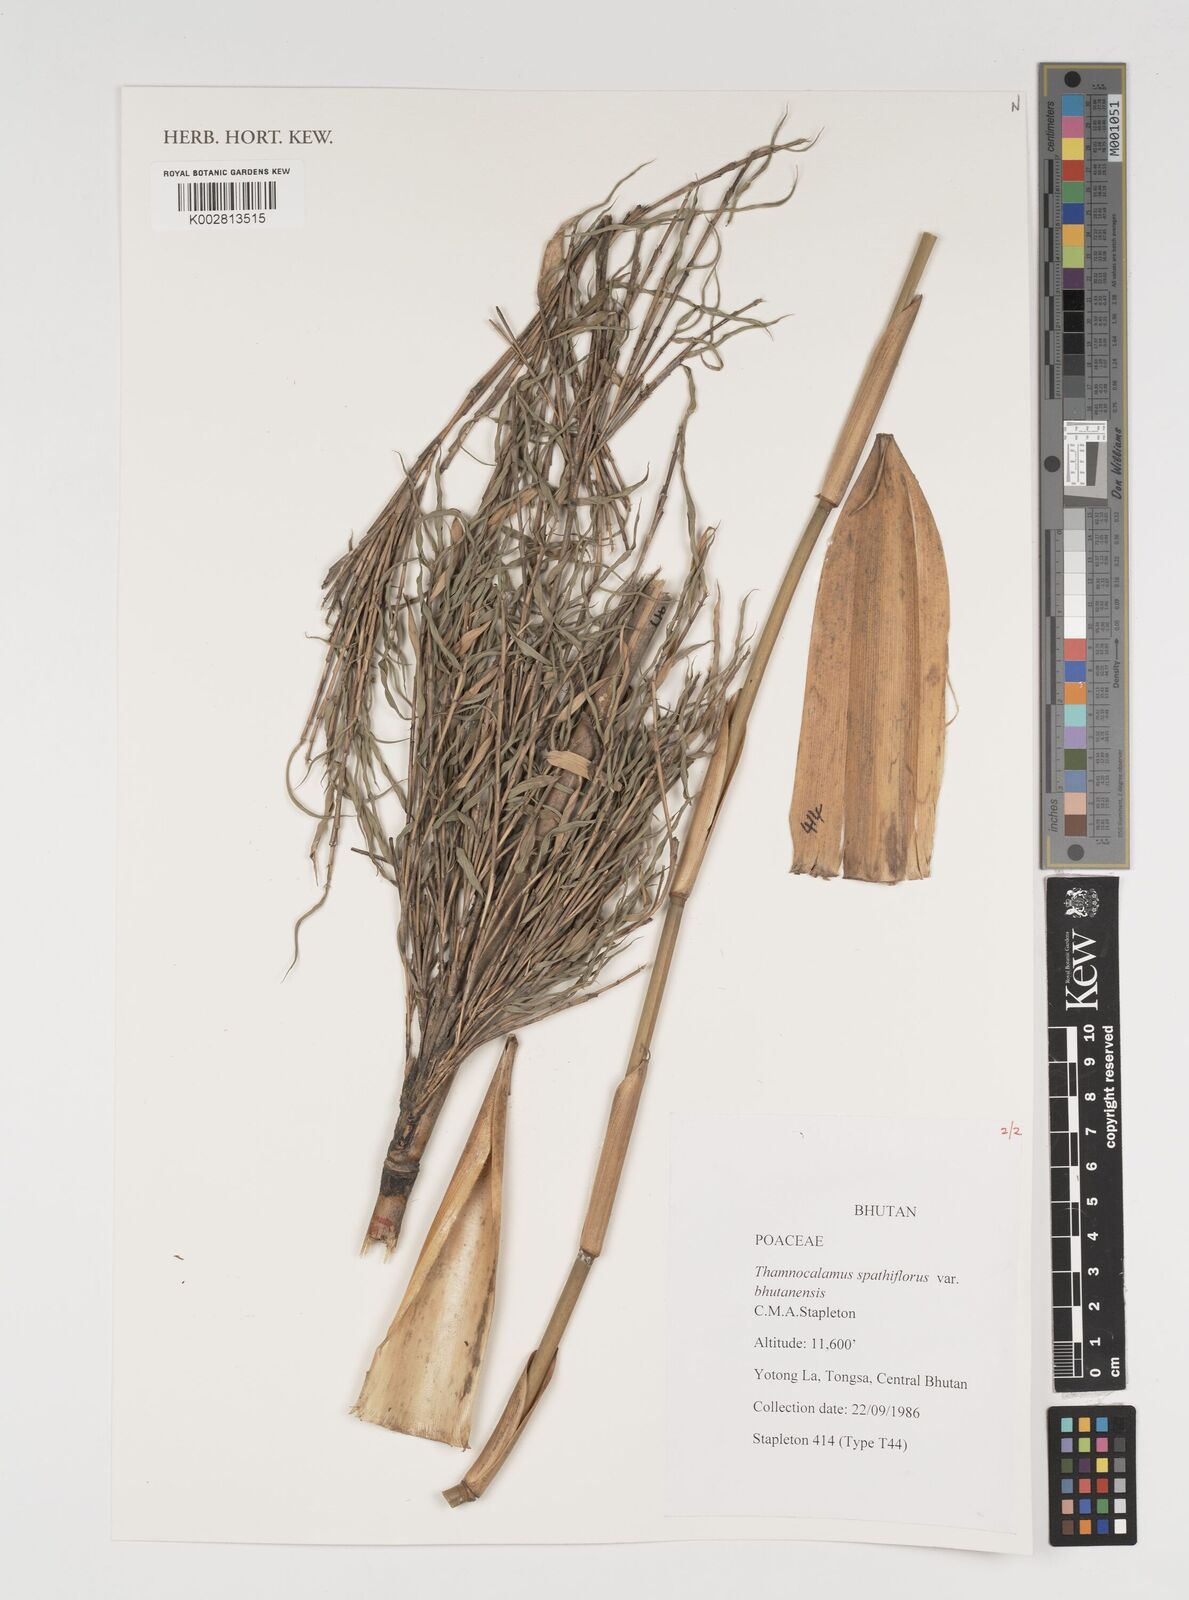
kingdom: Plantae
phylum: Tracheophyta
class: Liliopsida
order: Poales
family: Poaceae
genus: Thamnocalamus
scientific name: Thamnocalamus spathiflorus
